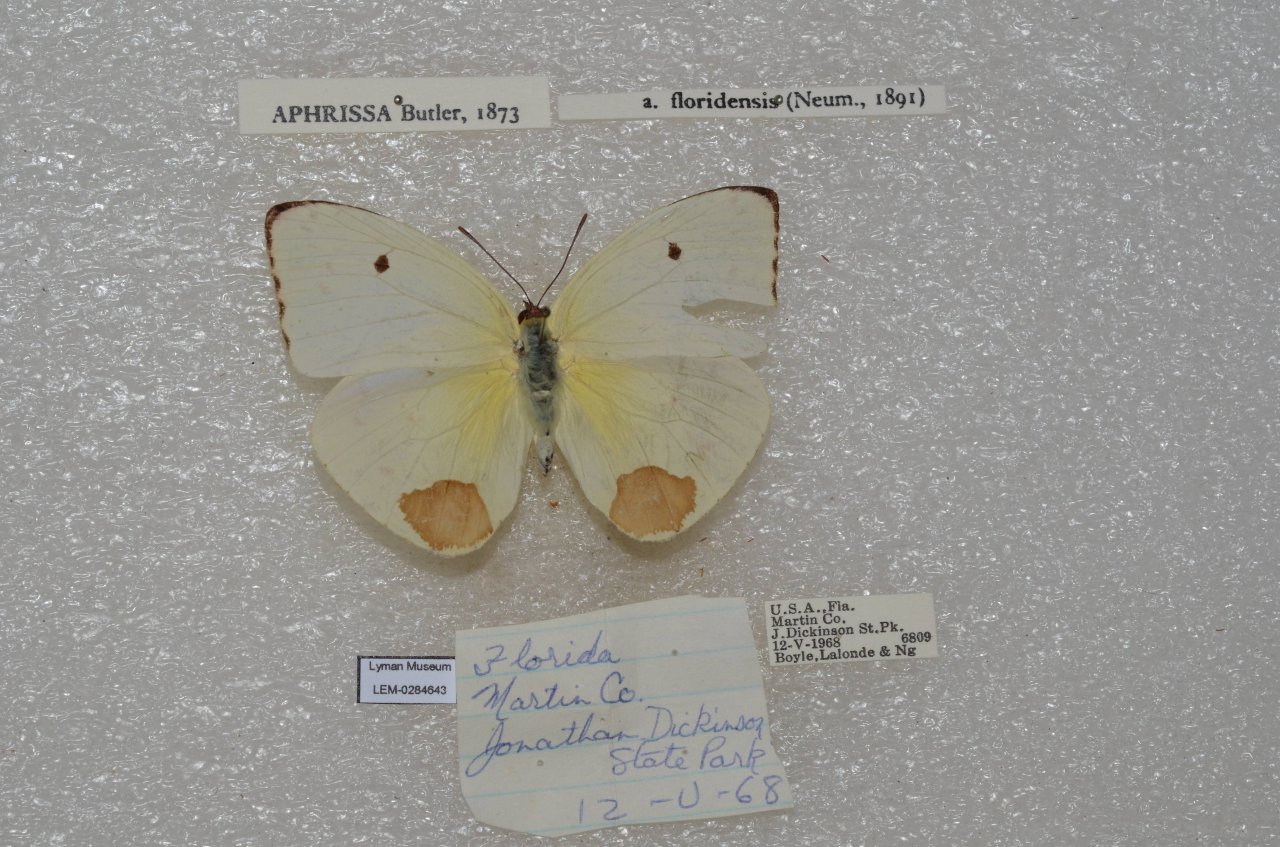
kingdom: Animalia
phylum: Arthropoda
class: Insecta
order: Lepidoptera
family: Pieridae
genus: Aphrissa
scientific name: Aphrissa statira
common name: Statira Sulphur
